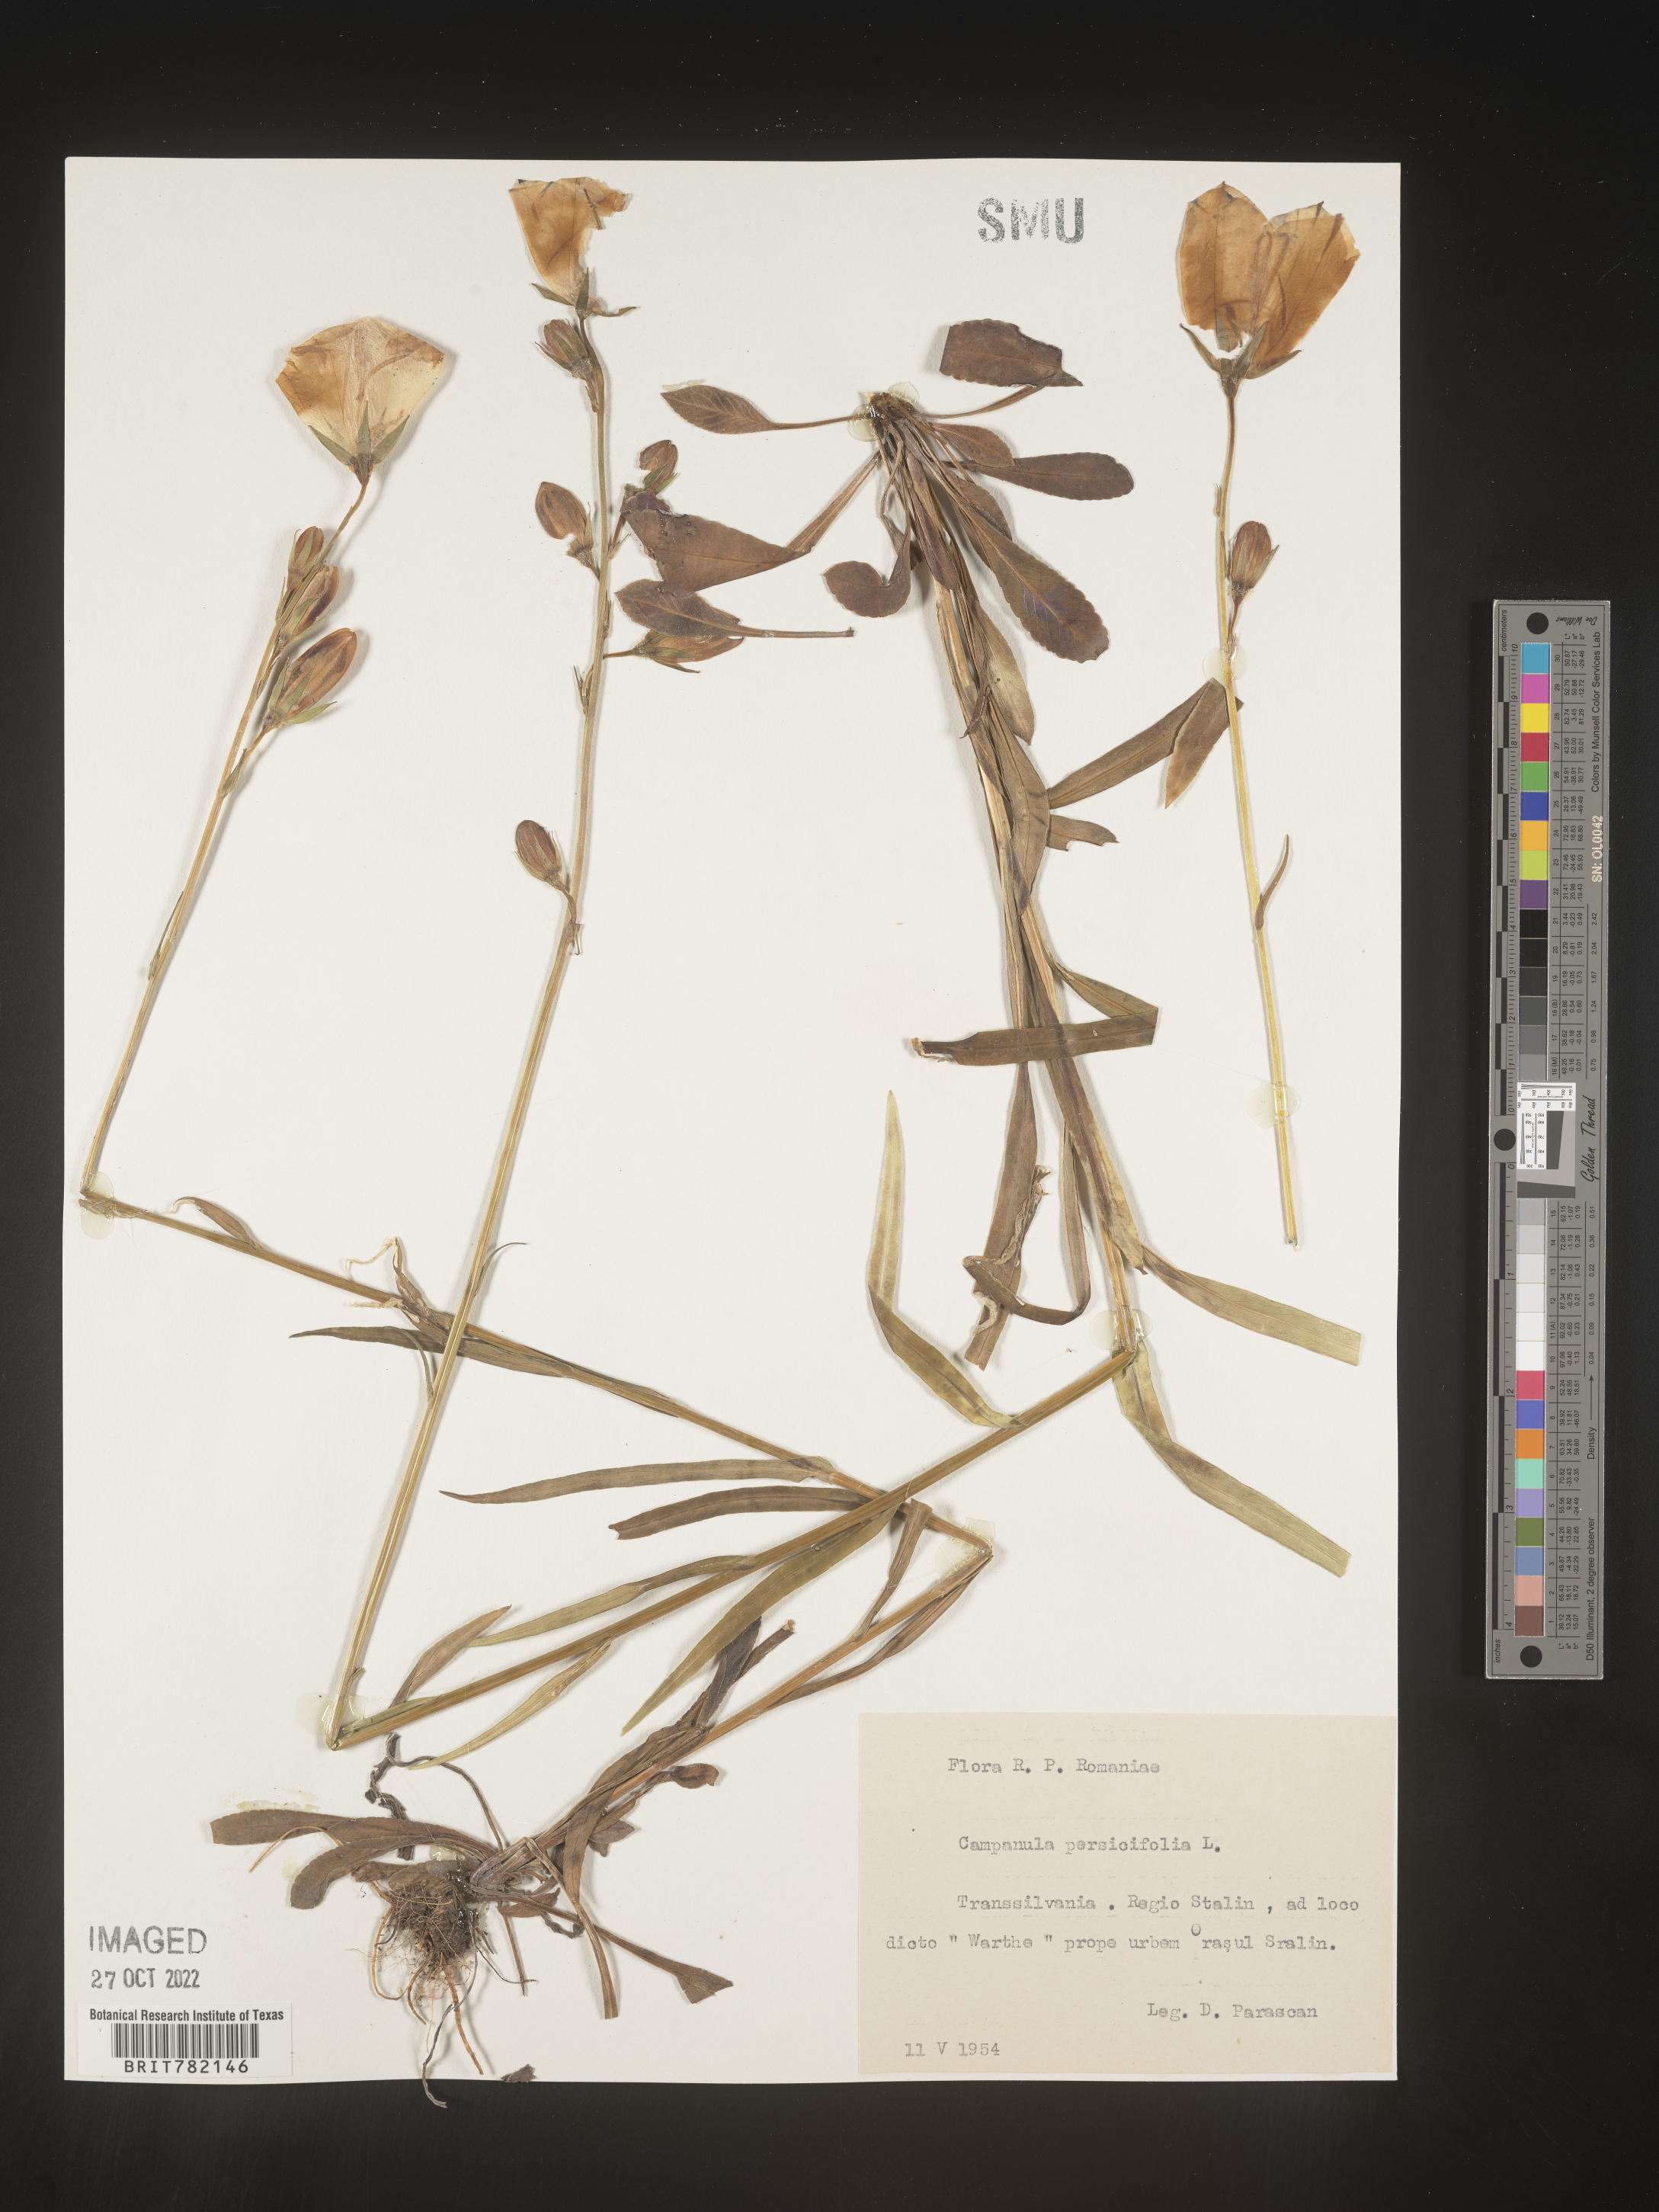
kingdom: Plantae
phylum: Tracheophyta
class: Magnoliopsida
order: Asterales
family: Campanulaceae
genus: Campanula
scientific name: Campanula
